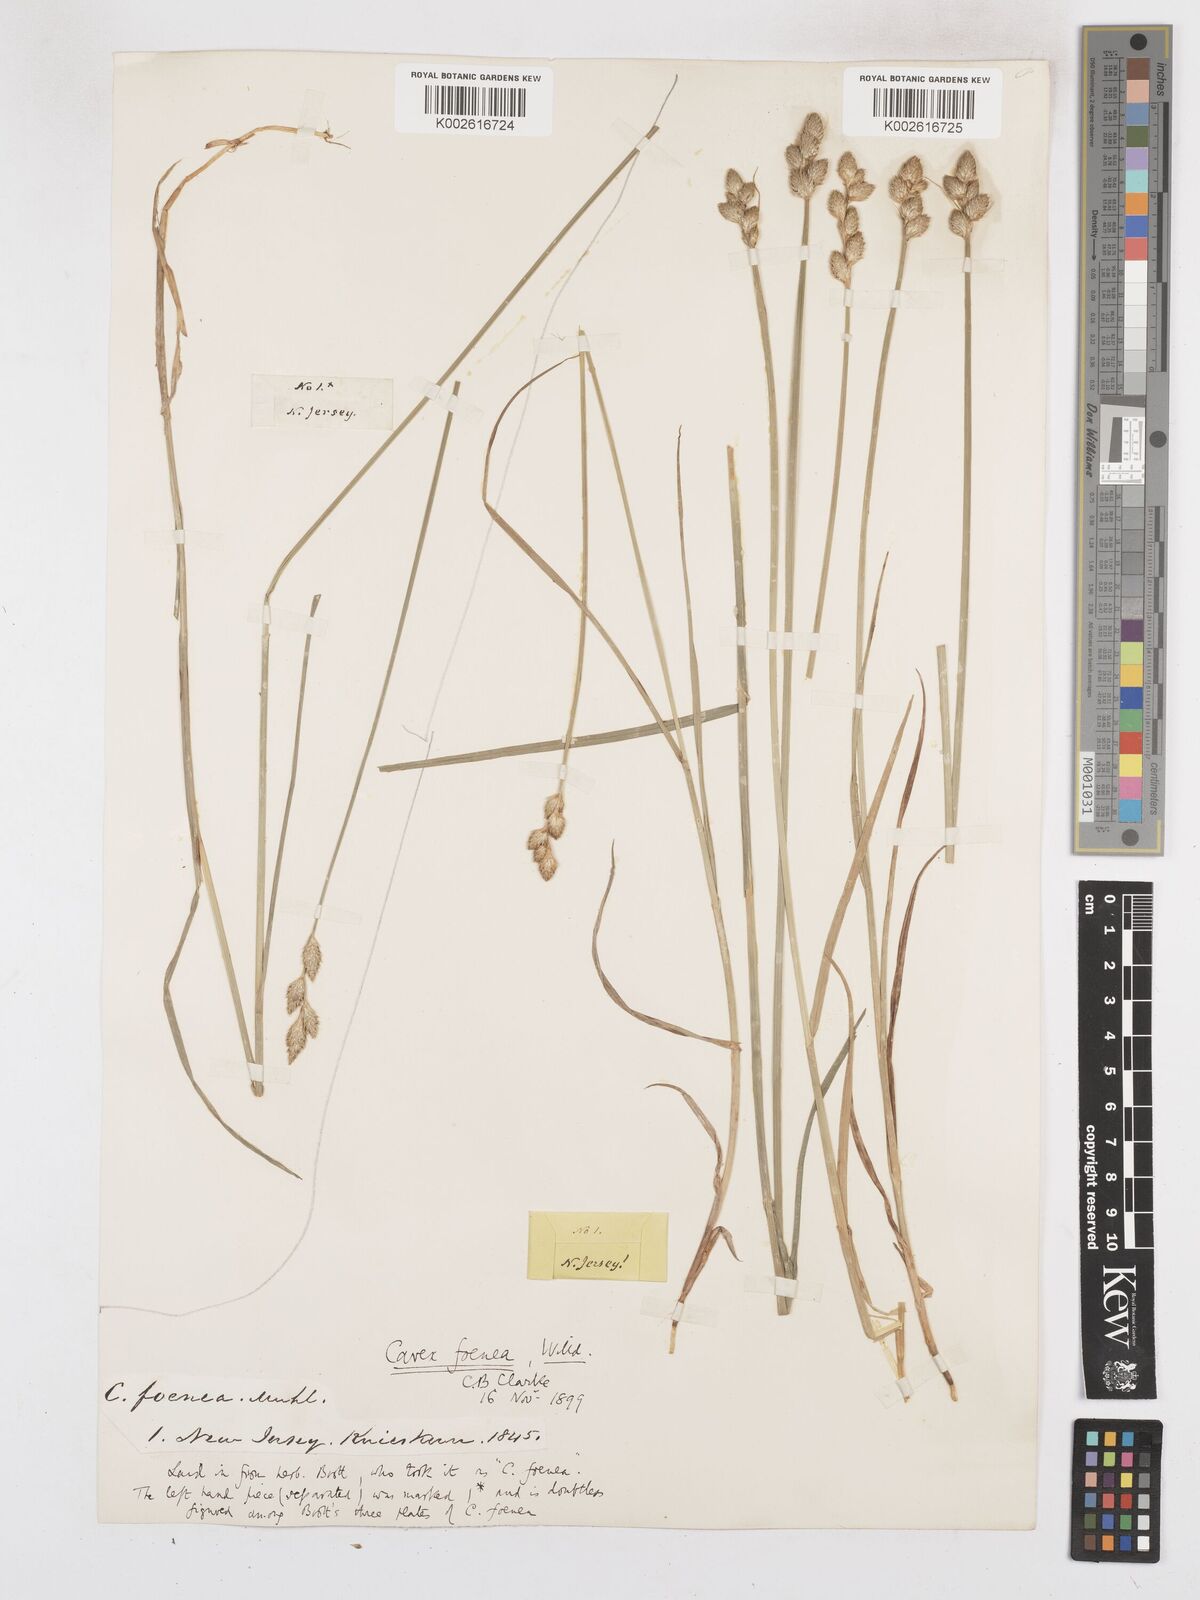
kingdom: Plantae
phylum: Tracheophyta
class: Liliopsida
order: Poales
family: Cyperaceae
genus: Carex
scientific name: Carex argyrantha
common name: Silvery-flowered sedge
